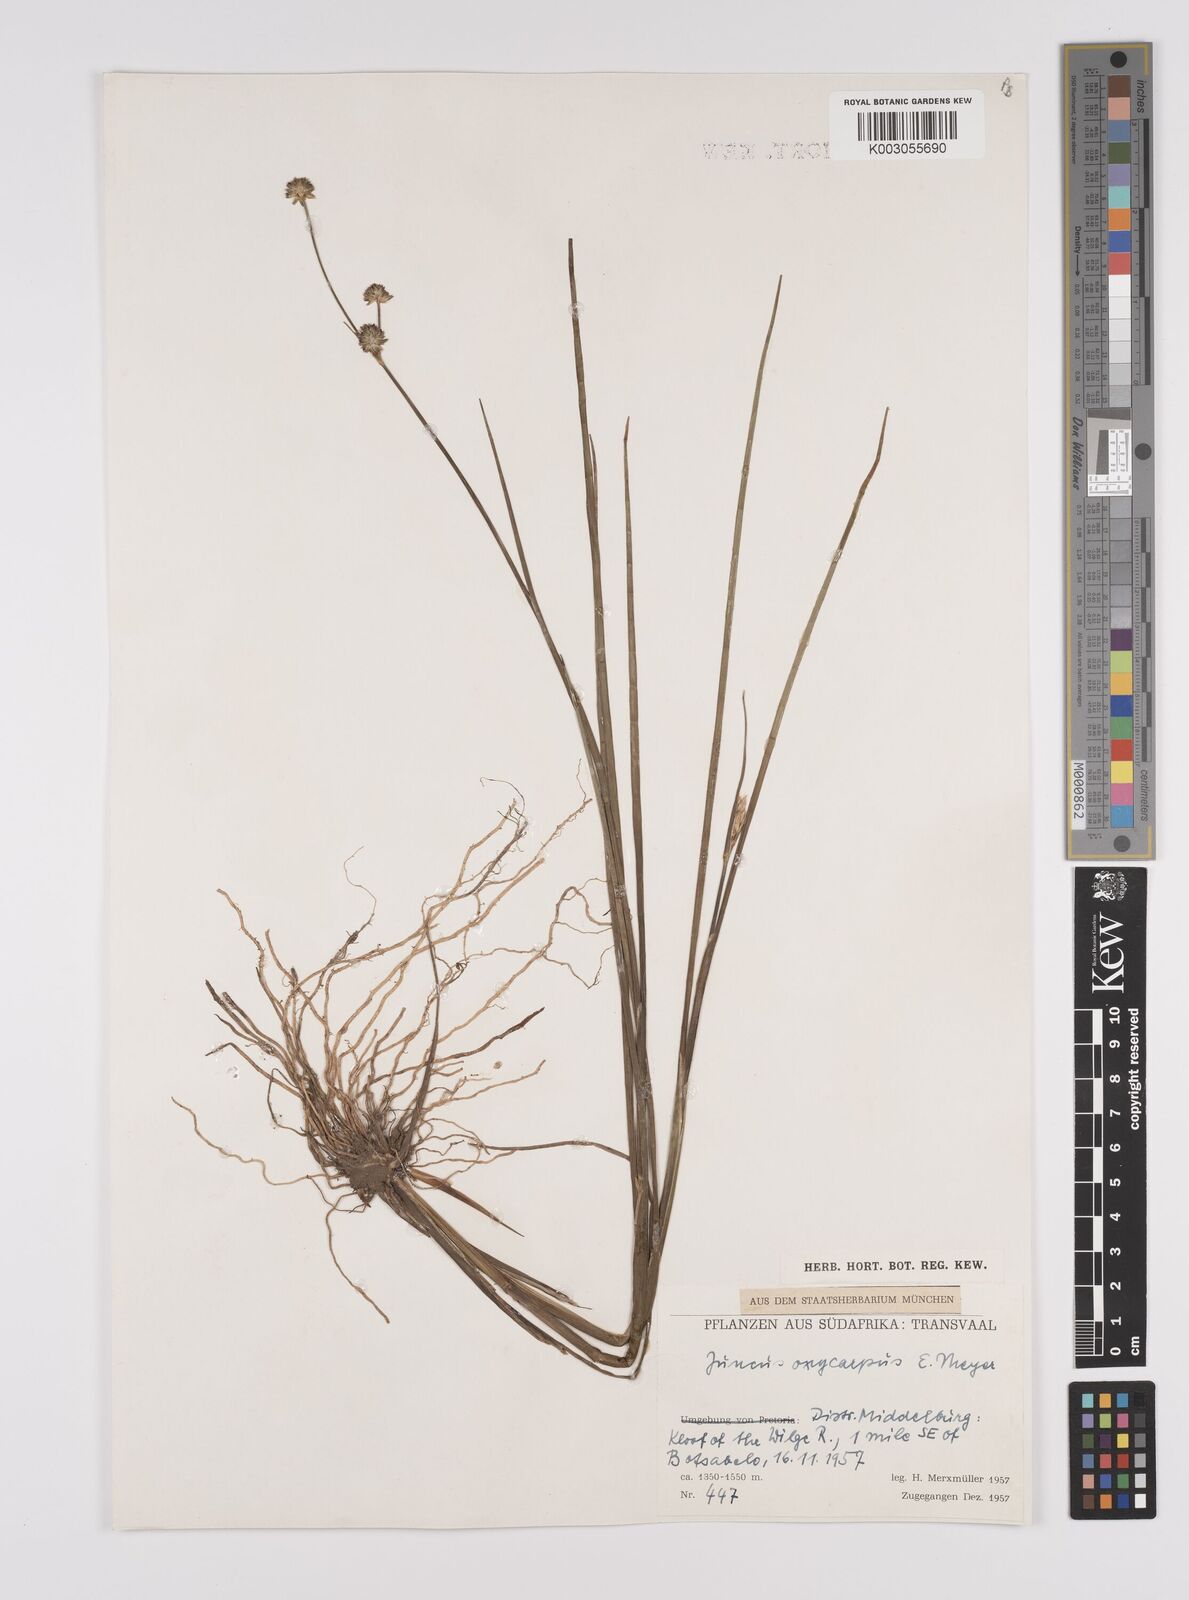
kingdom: Plantae
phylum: Tracheophyta
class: Liliopsida
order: Poales
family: Juncaceae
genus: Juncus
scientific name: Juncus oxycarpus
